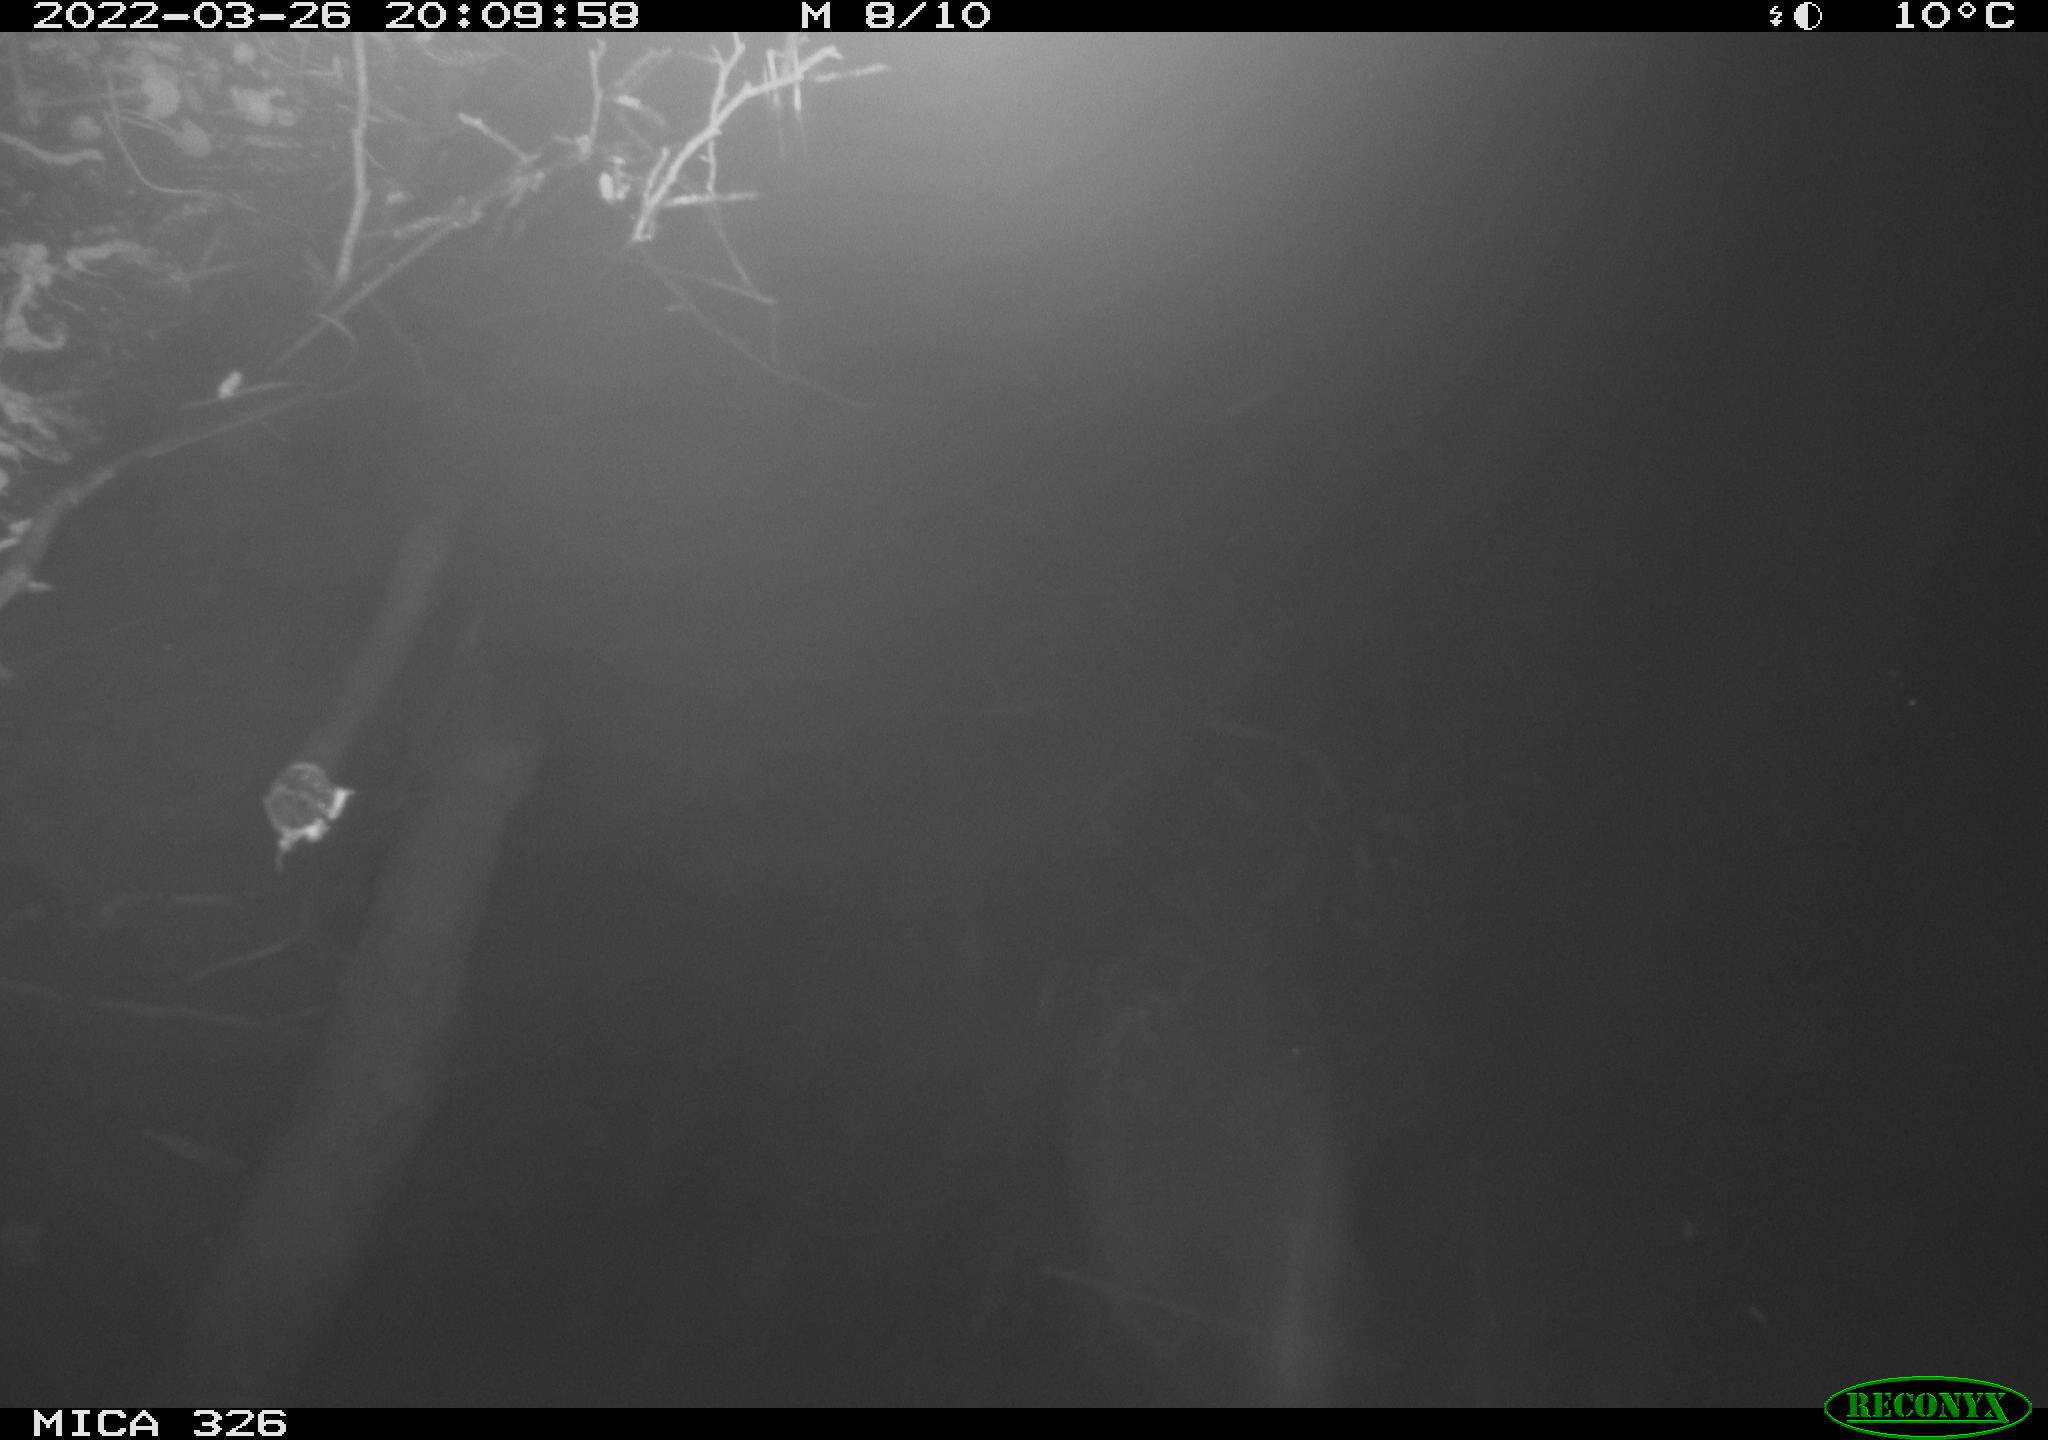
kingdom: Animalia
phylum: Chordata
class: Mammalia
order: Rodentia
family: Muridae
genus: Rattus
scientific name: Rattus norvegicus
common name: Brown rat
